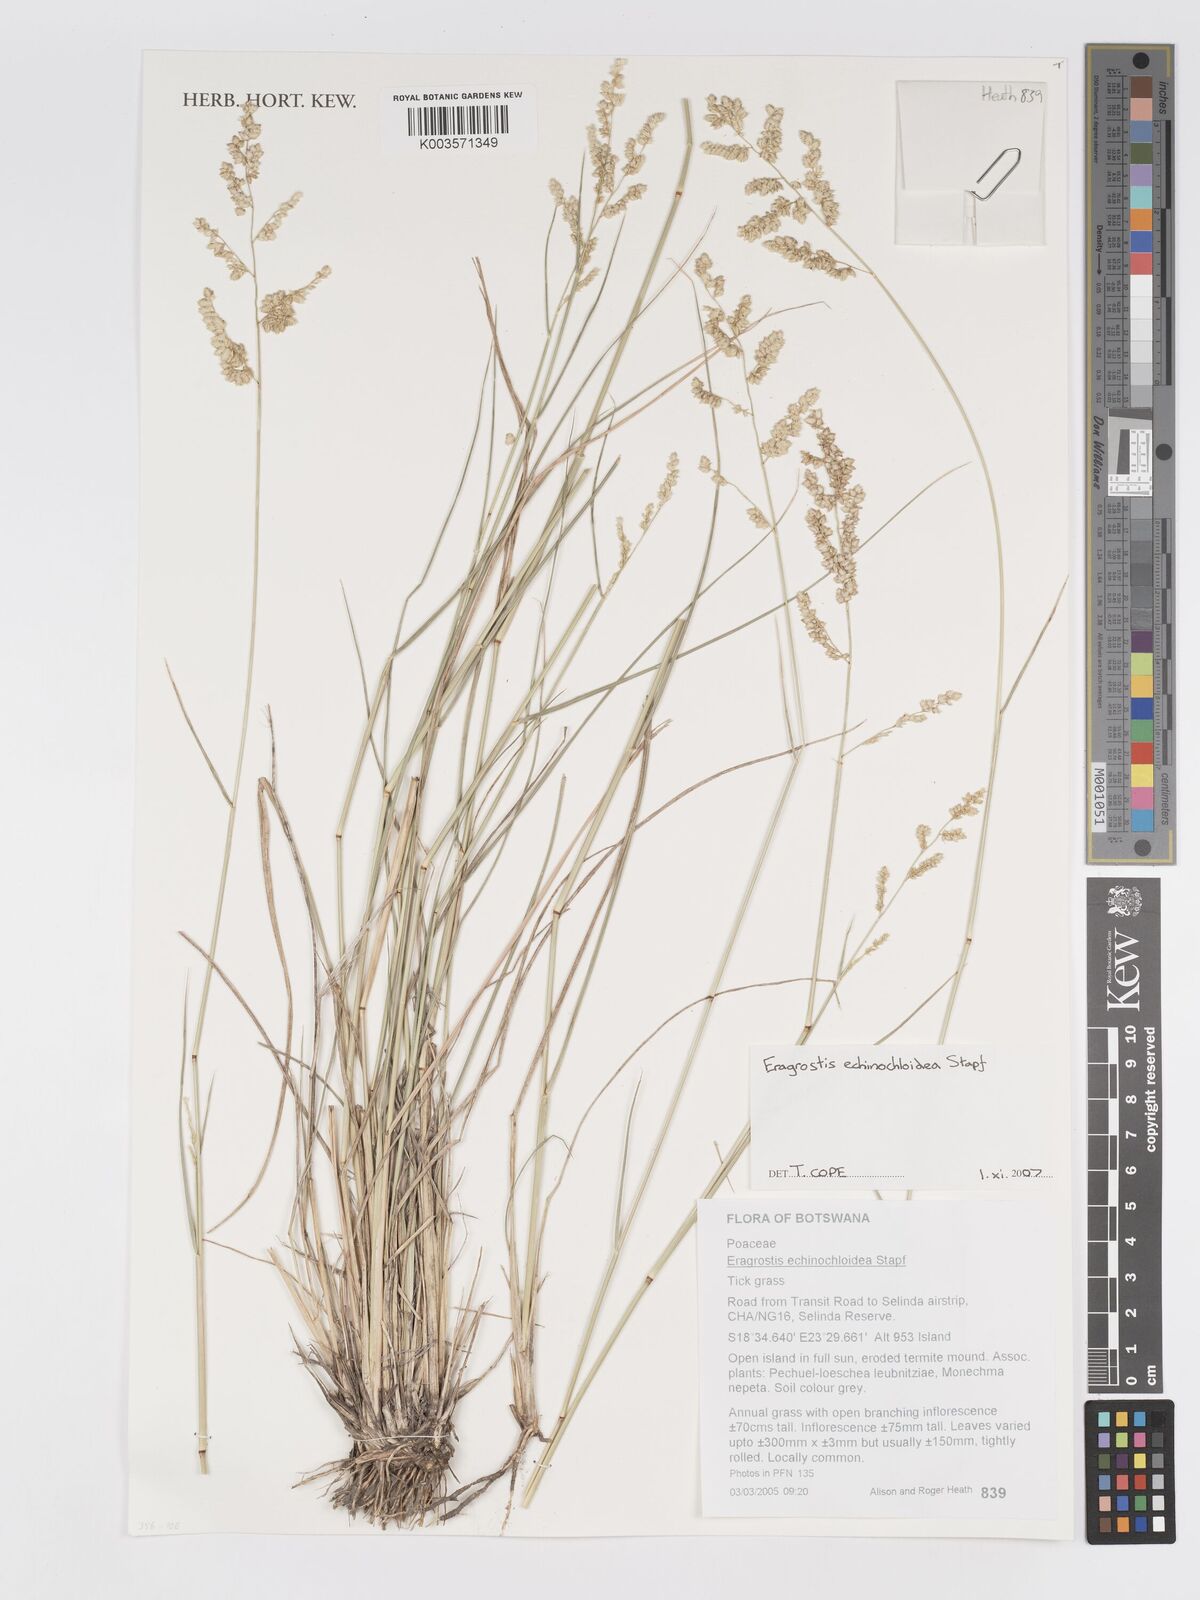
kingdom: Plantae
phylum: Tracheophyta
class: Liliopsida
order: Poales
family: Poaceae
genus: Eragrostis
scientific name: Eragrostis echinochloidea
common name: African lovegrass
